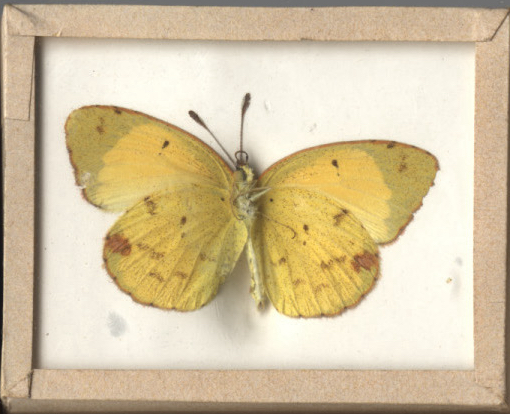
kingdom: Animalia
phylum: Arthropoda
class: Insecta
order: Lepidoptera
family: Pieridae
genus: Eurema
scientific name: Eurema lisa
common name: Little Yellow
